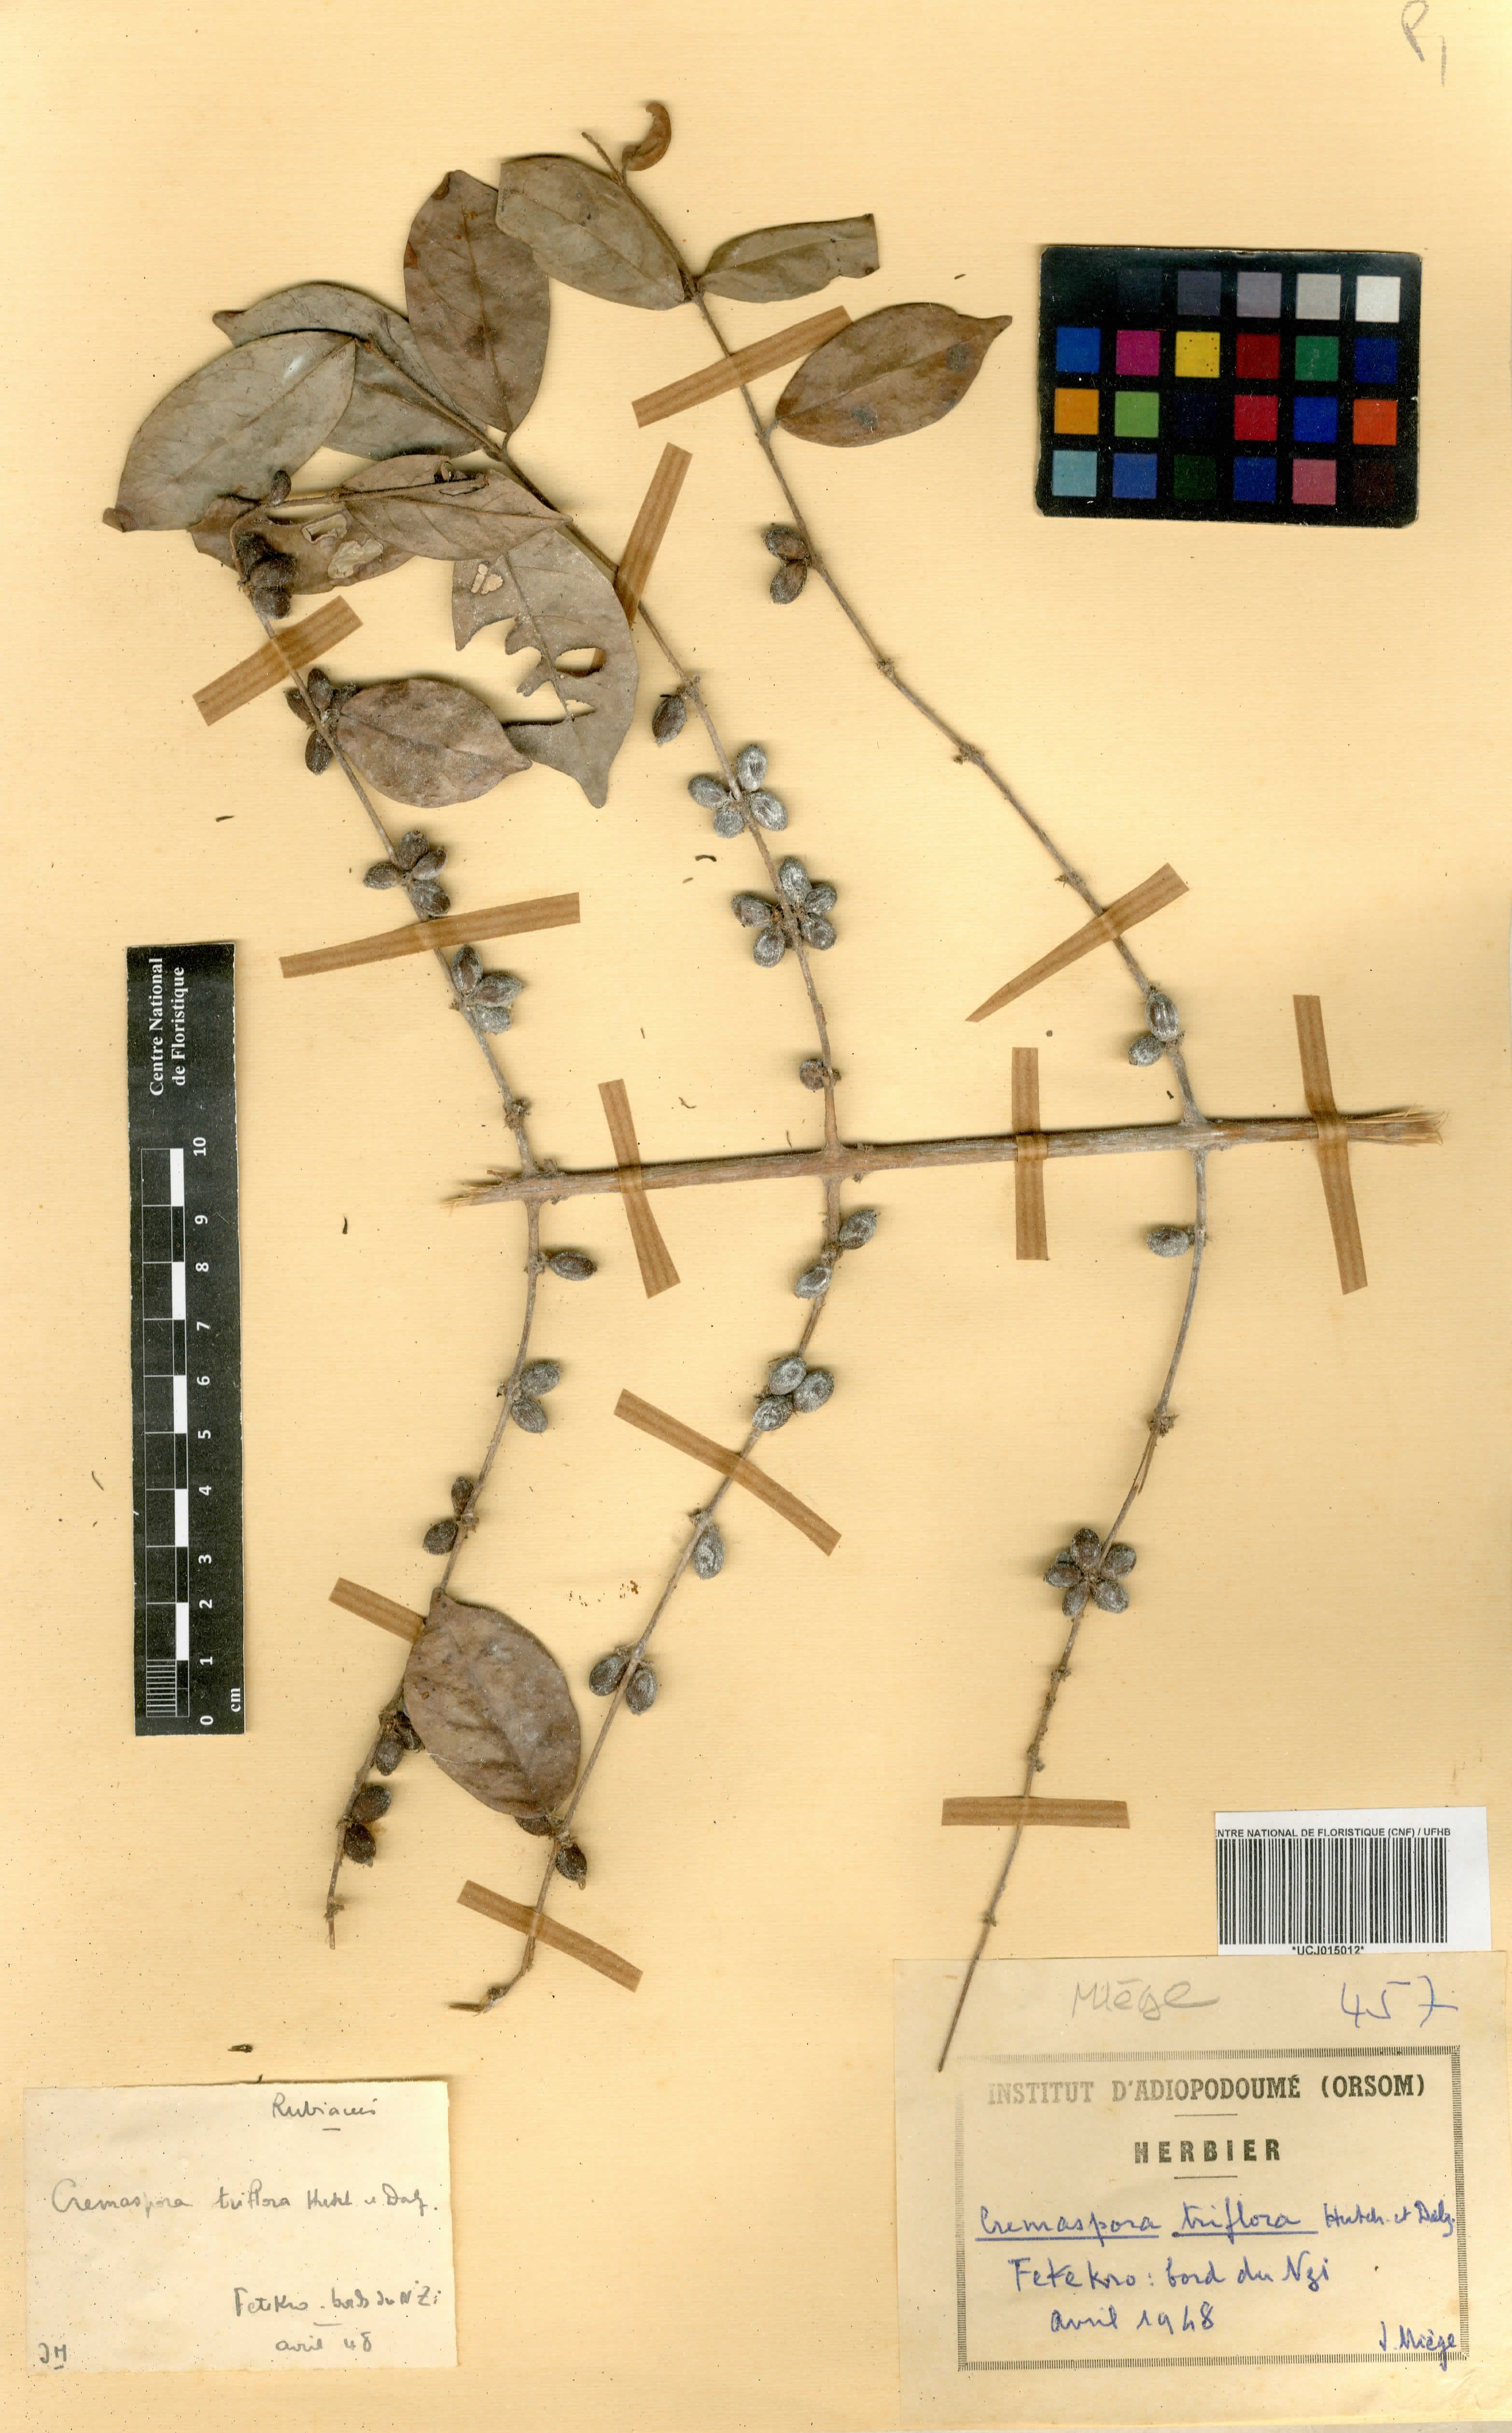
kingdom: Plantae
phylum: Tracheophyta
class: Magnoliopsida
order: Gentianales
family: Rubiaceae
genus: Cremaspora
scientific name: Cremaspora triflora
